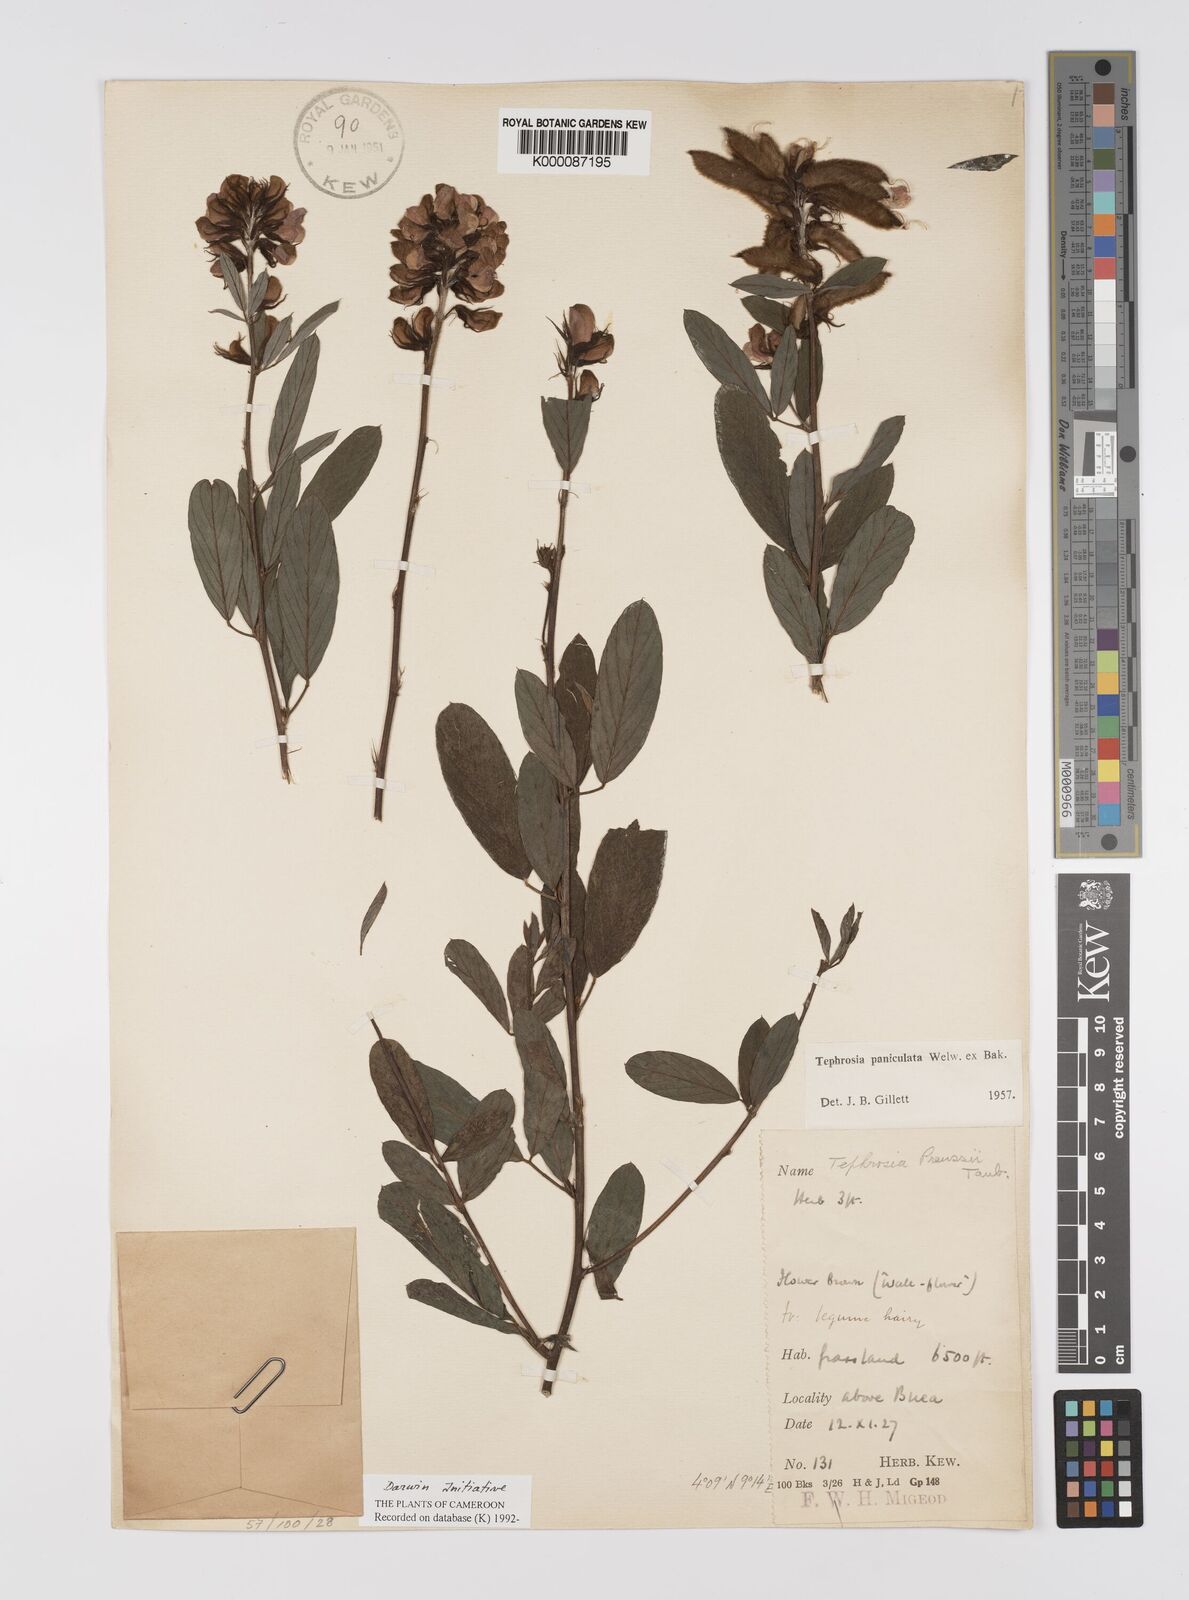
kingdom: Plantae
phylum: Tracheophyta
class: Magnoliopsida
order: Fabales
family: Fabaceae
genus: Tephrosia
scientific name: Tephrosia paniculata
